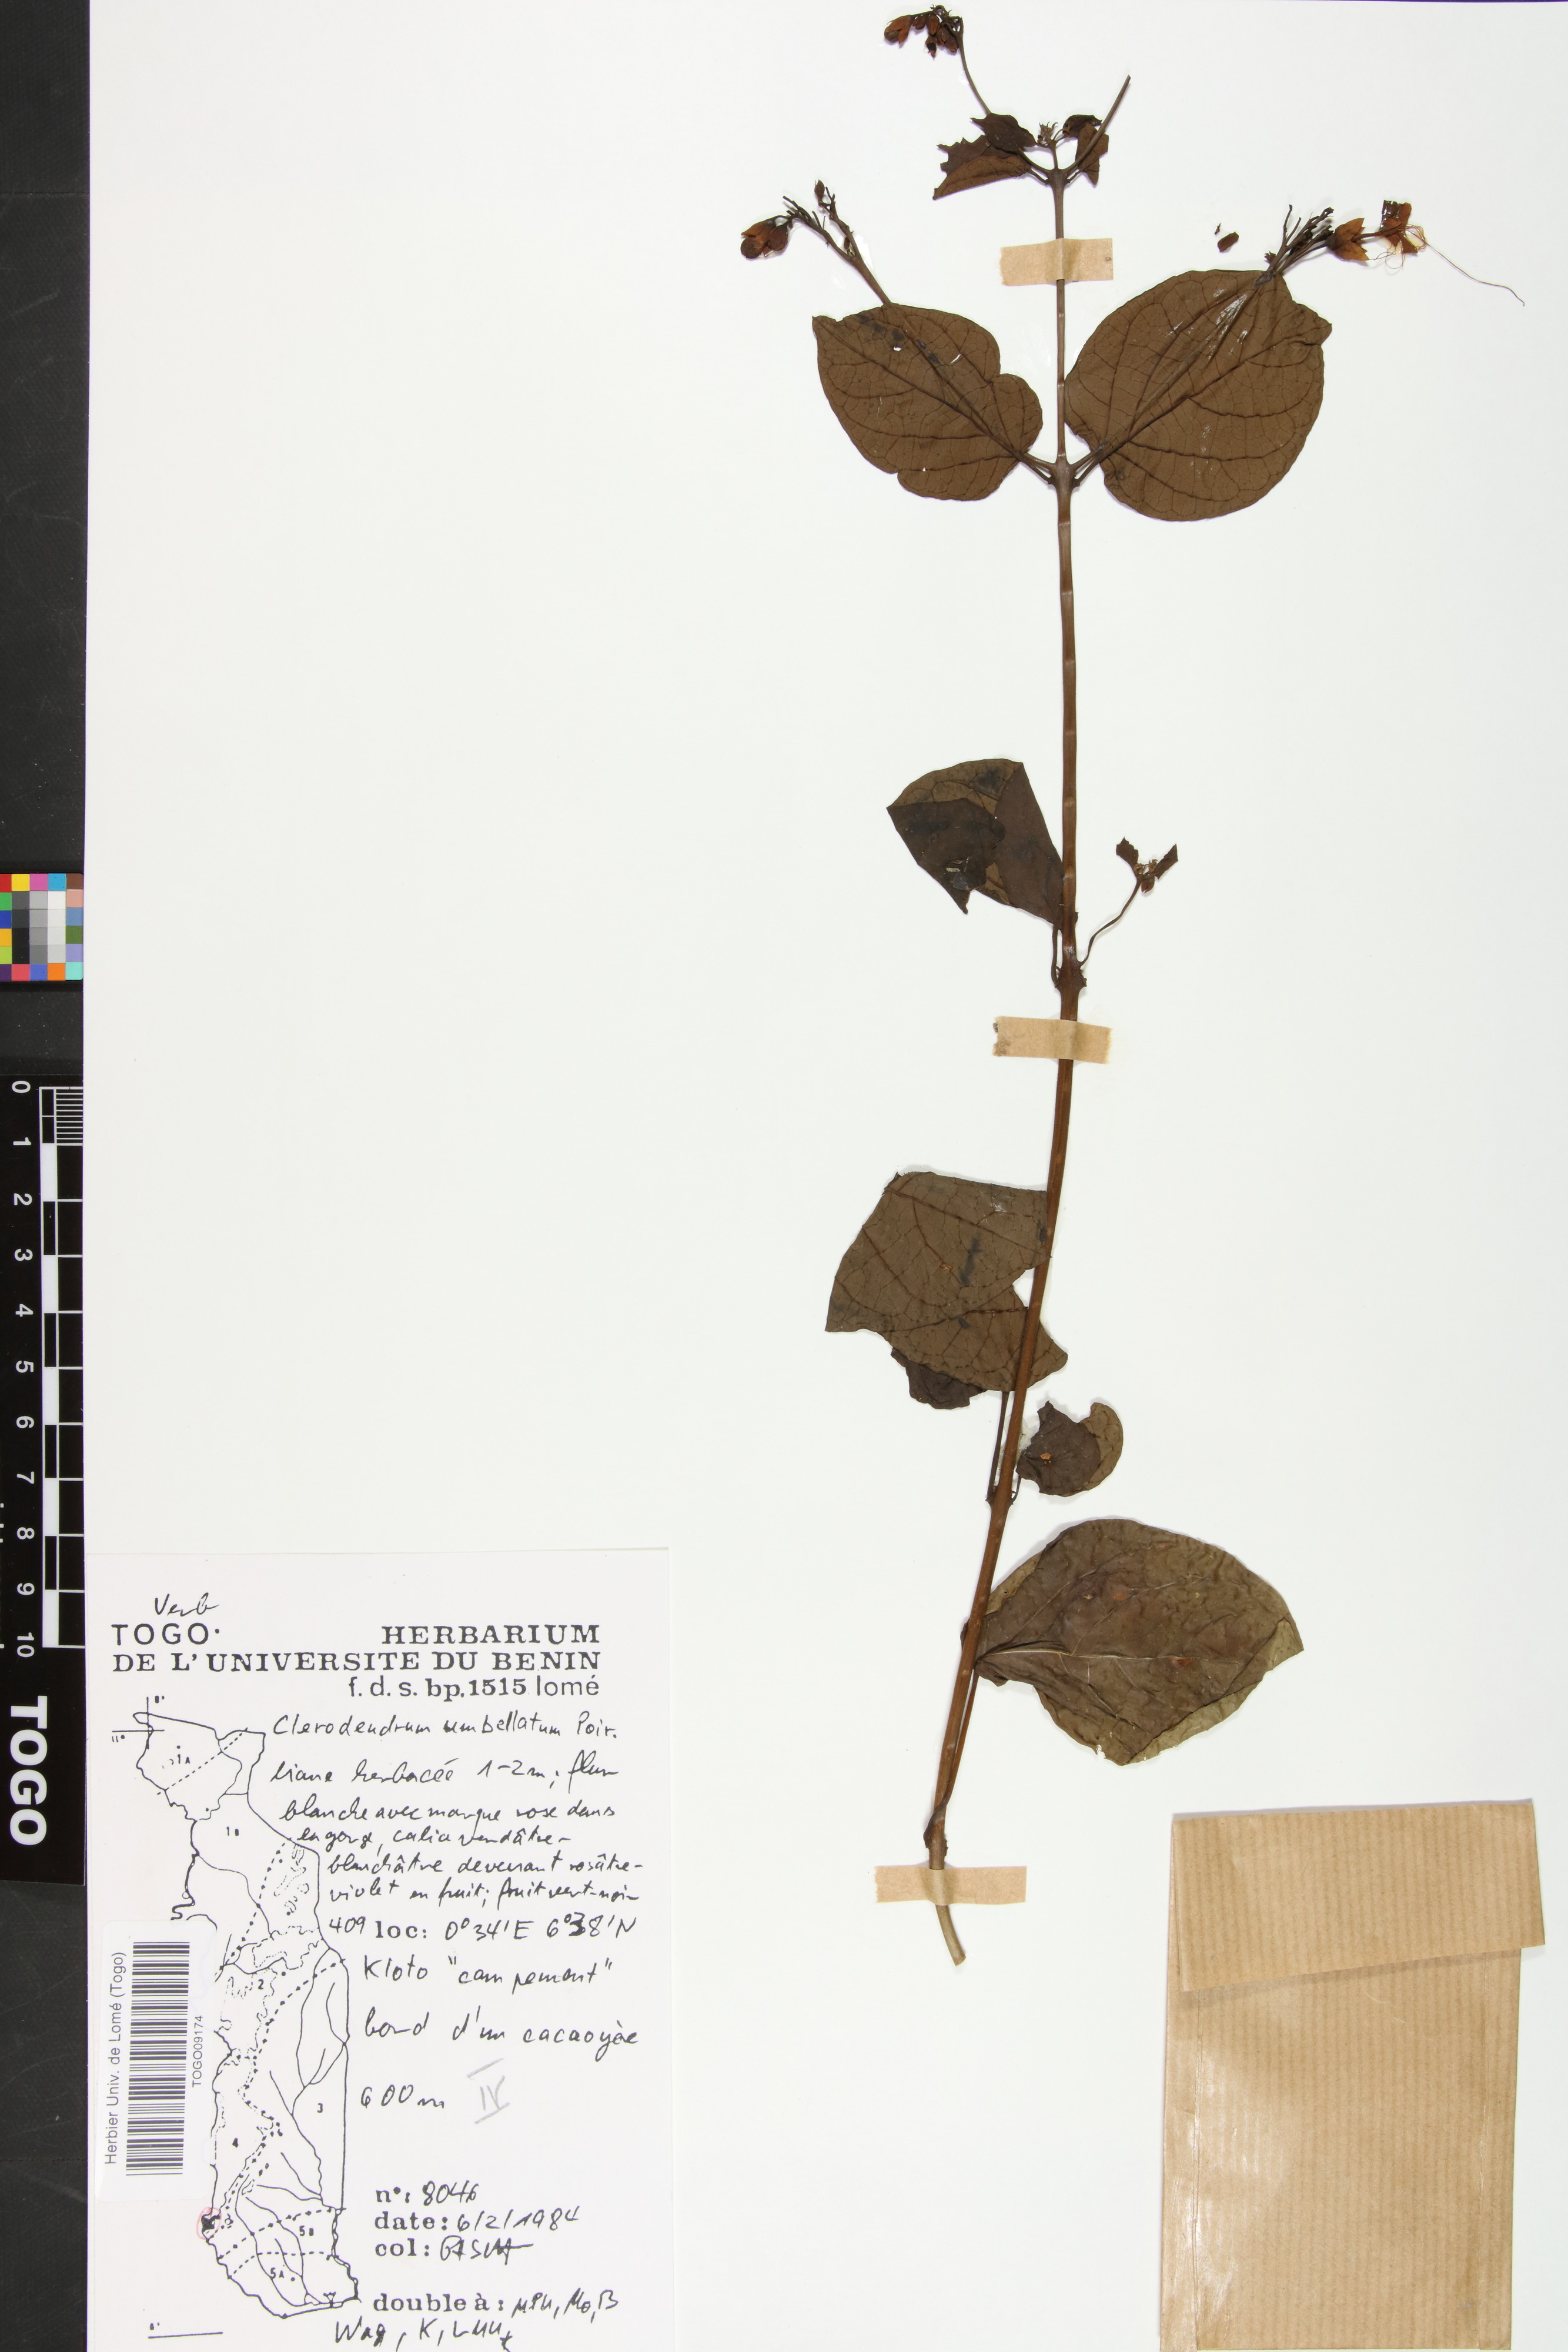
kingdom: Plantae
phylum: Tracheophyta
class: Magnoliopsida
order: Lamiales
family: Lamiaceae
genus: Clerodendrum
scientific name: Clerodendrum umbellatum
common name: Umbel clerodendrum
